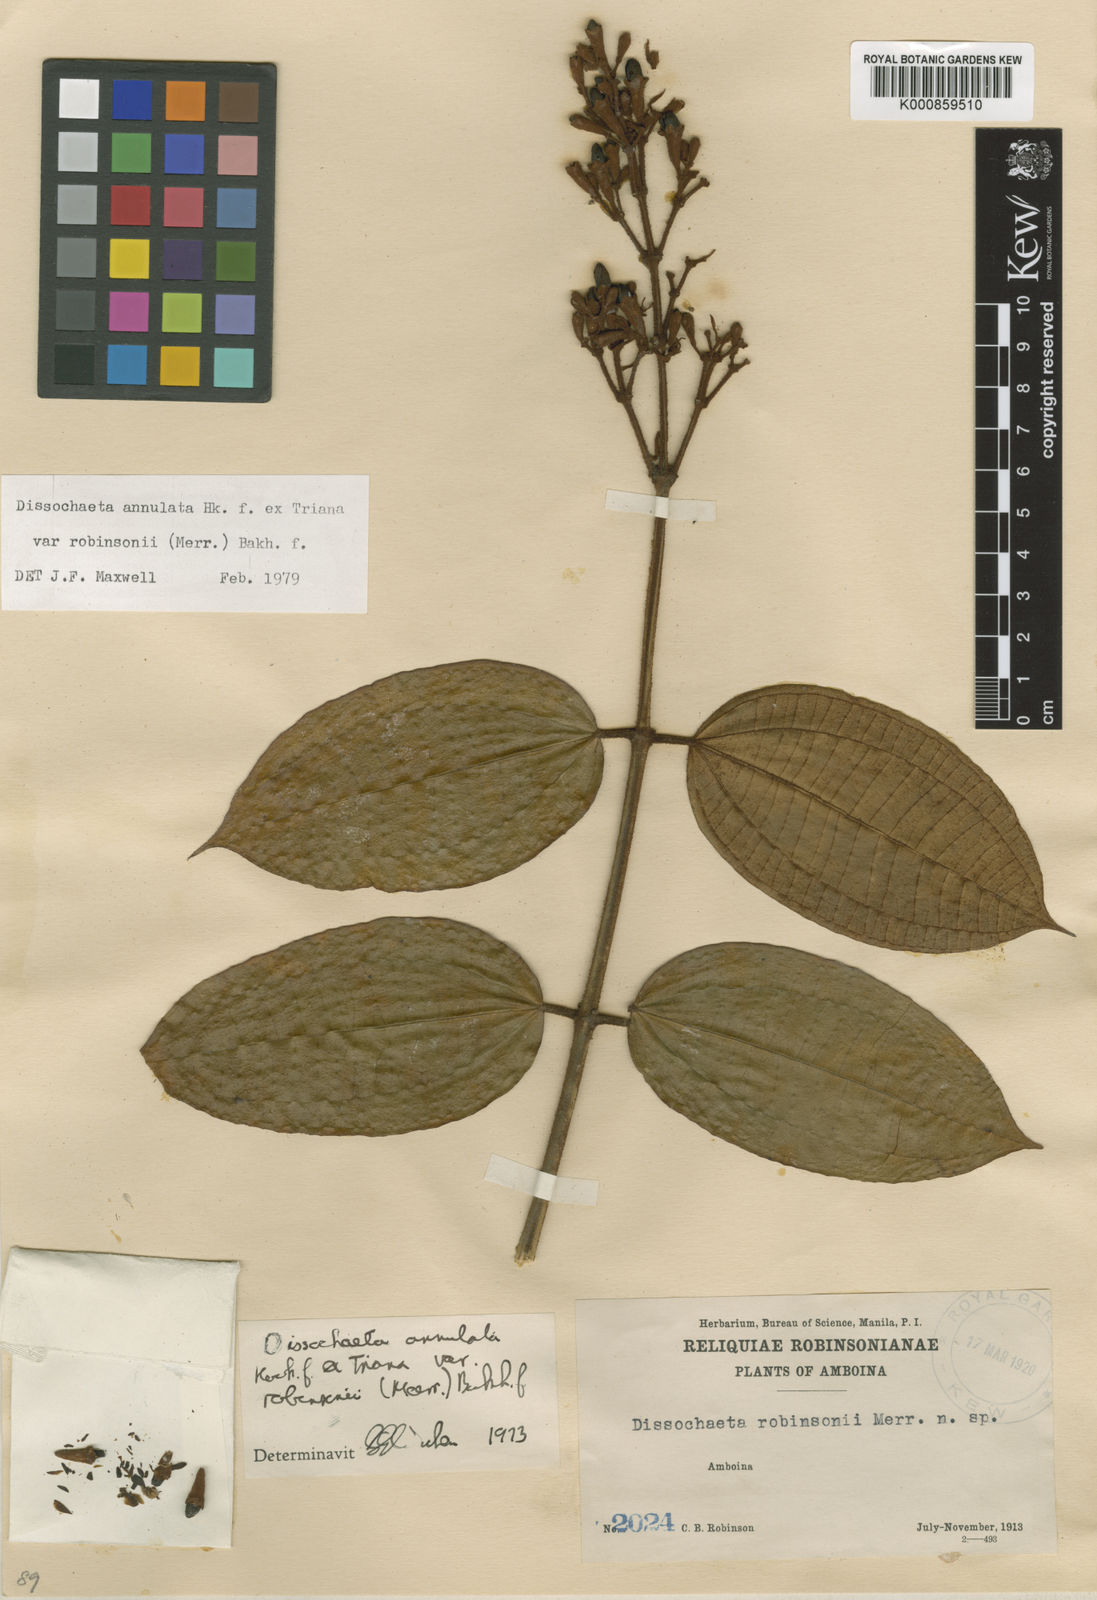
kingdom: Plantae
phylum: Tracheophyta
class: Magnoliopsida
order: Myrtales
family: Melastomataceae
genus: Dissochaeta
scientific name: Dissochaeta annulata
